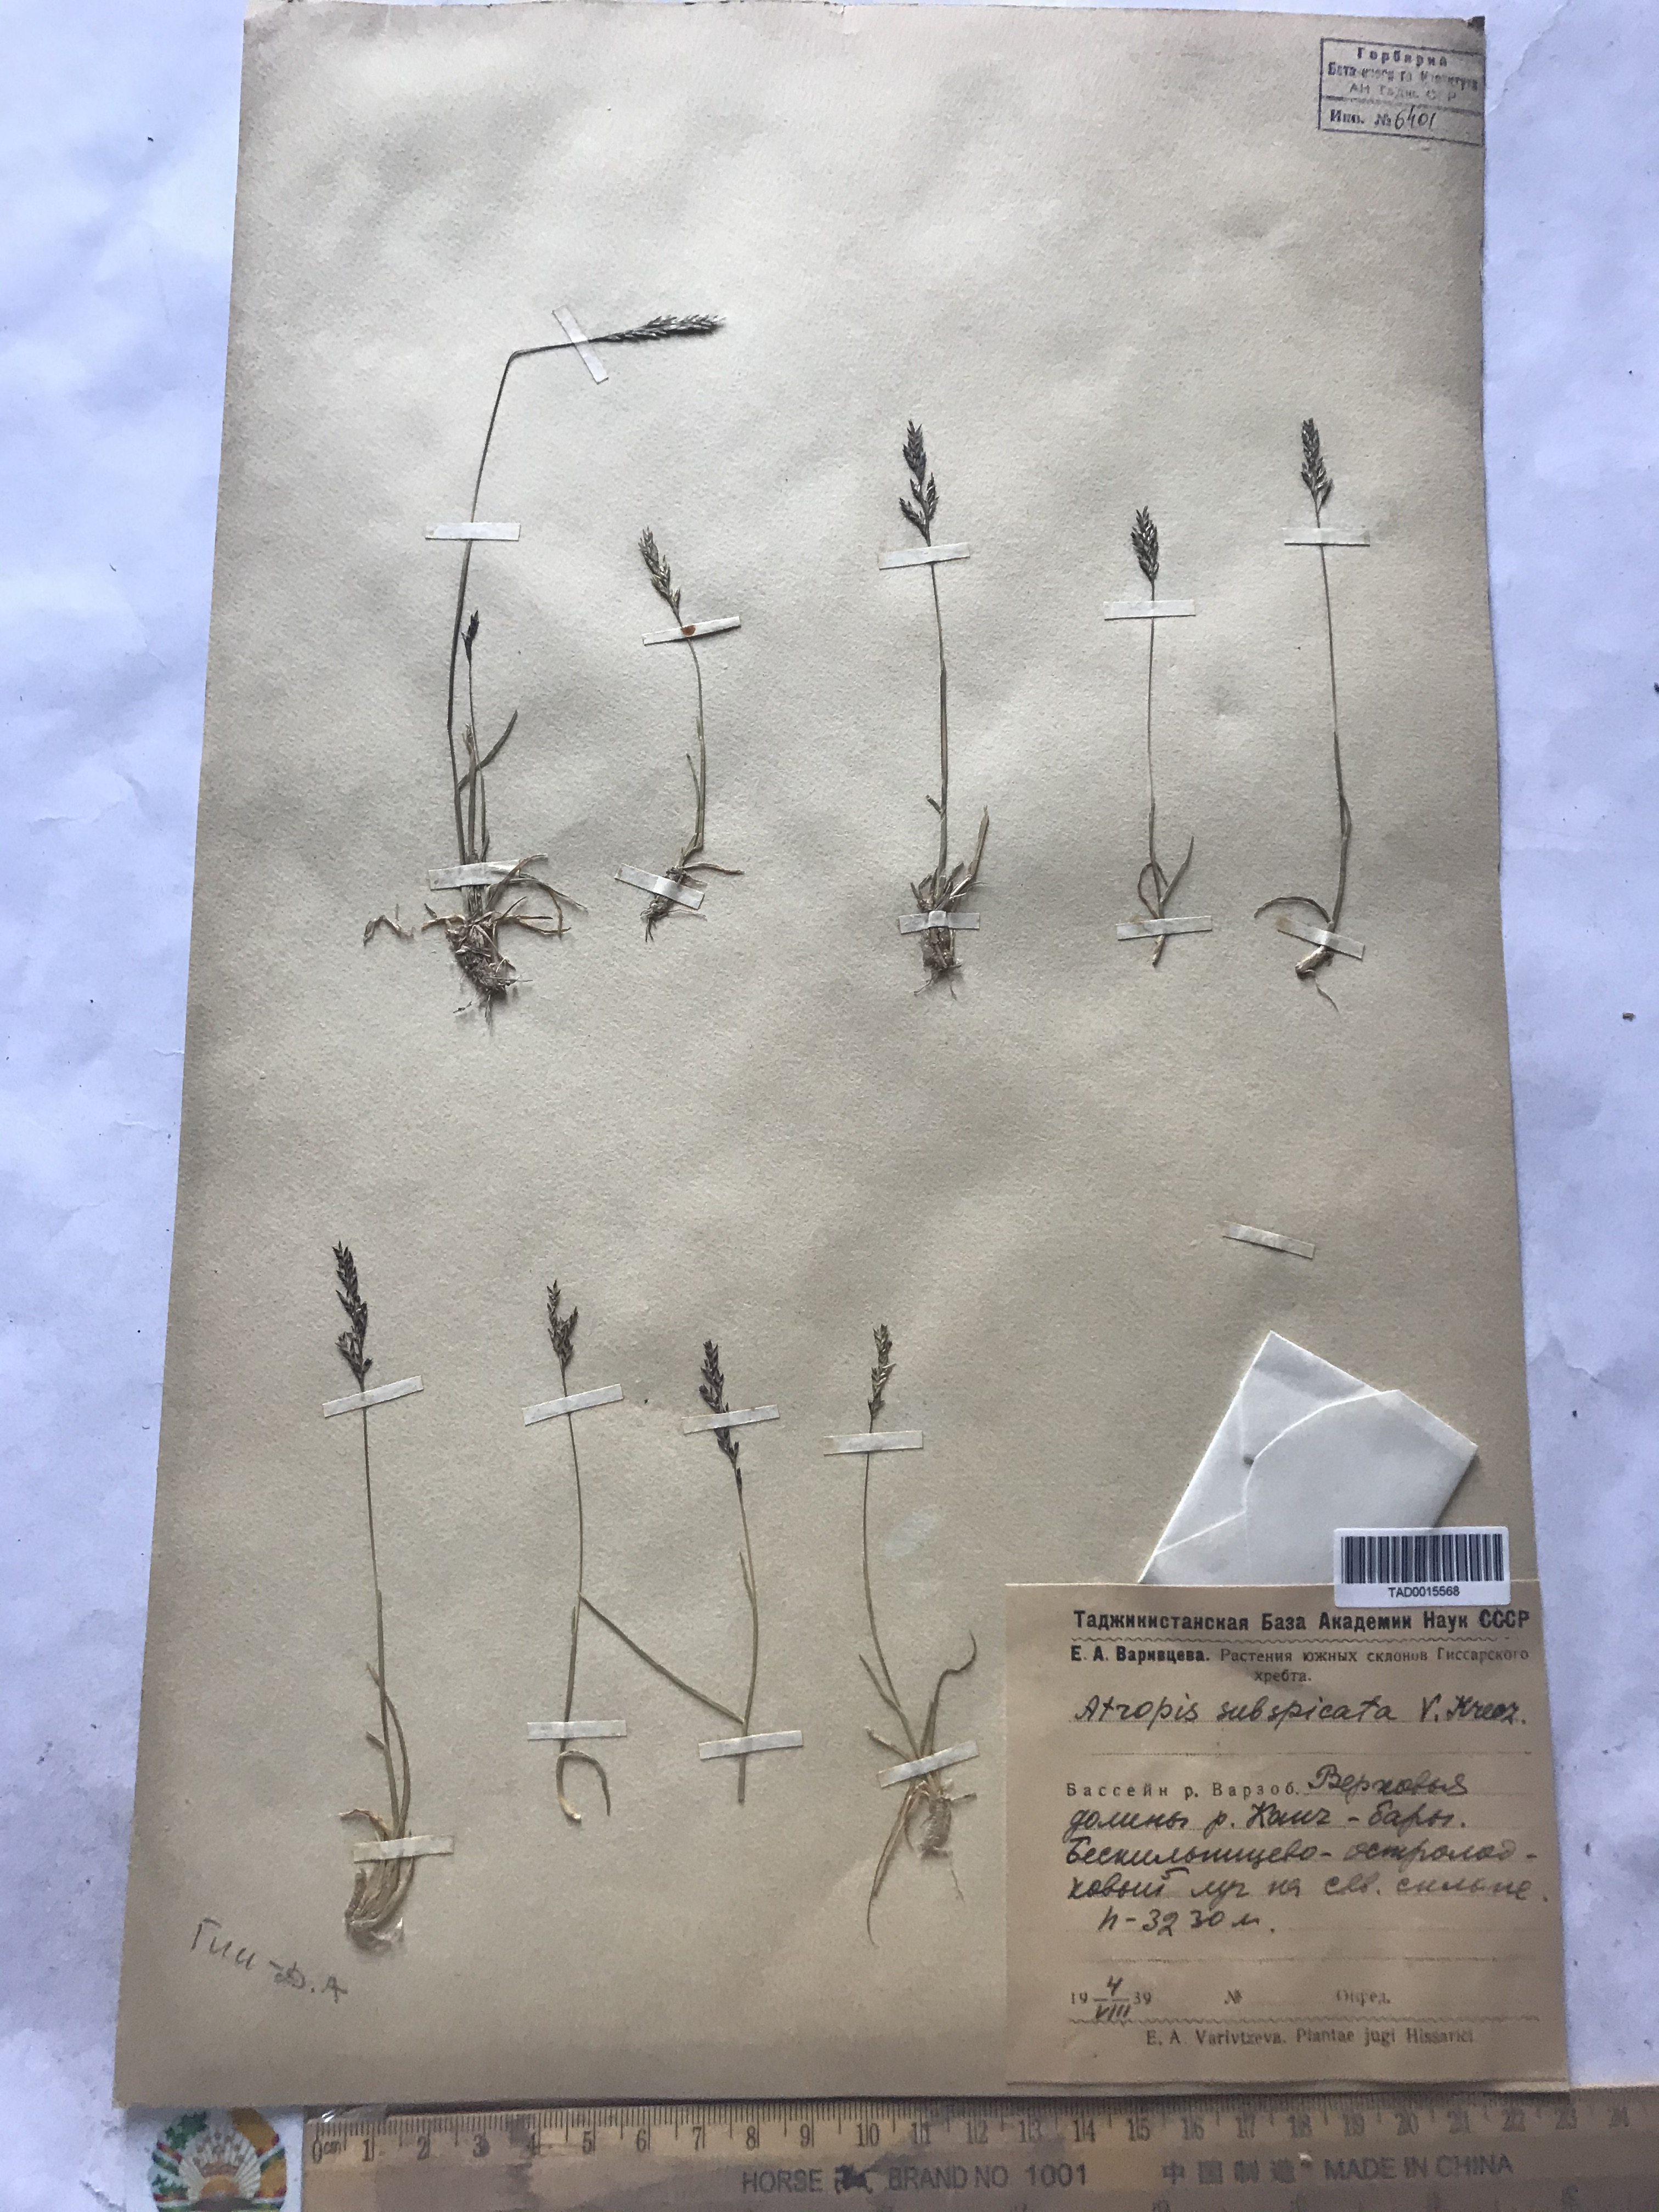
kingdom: Plantae
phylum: Tracheophyta
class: Liliopsida
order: Poales
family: Poaceae
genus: Puccinellia
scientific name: Puccinellia subspicata
